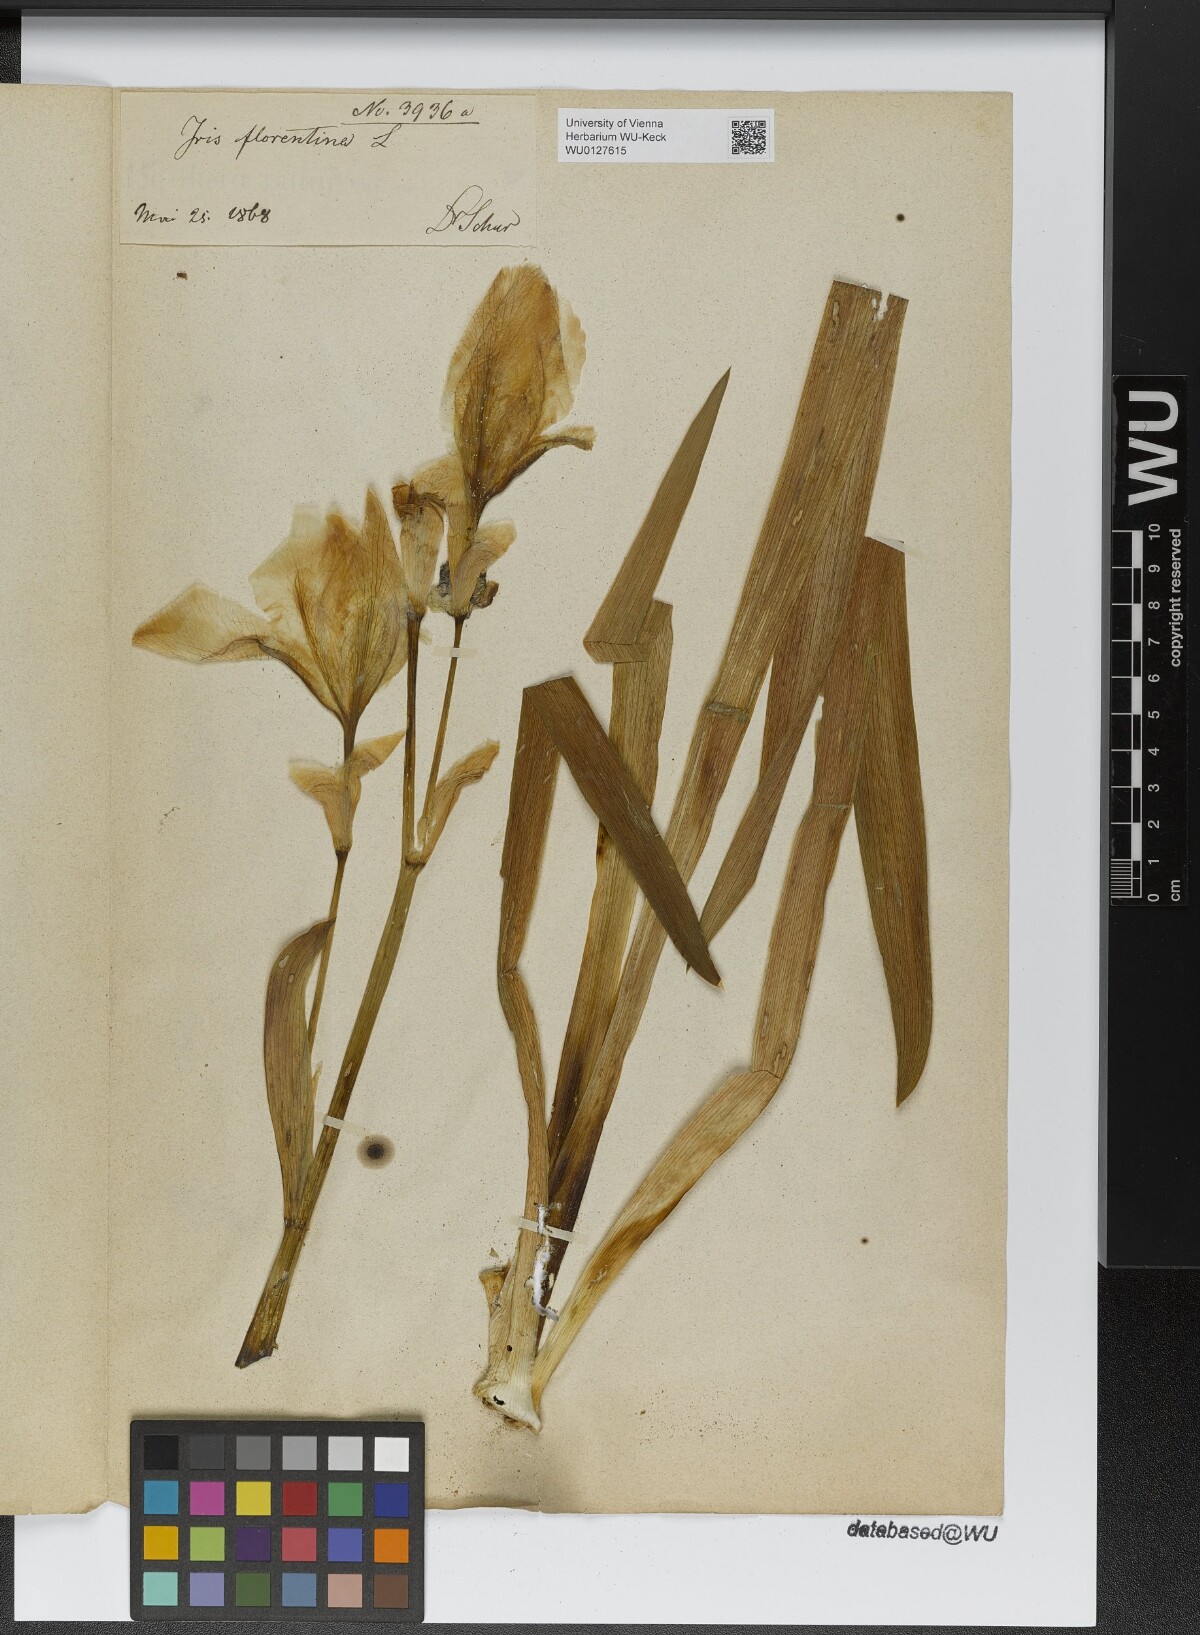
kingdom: Plantae
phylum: Tracheophyta
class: Liliopsida
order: Asparagales
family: Iridaceae
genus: Iris
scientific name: Iris florentina
